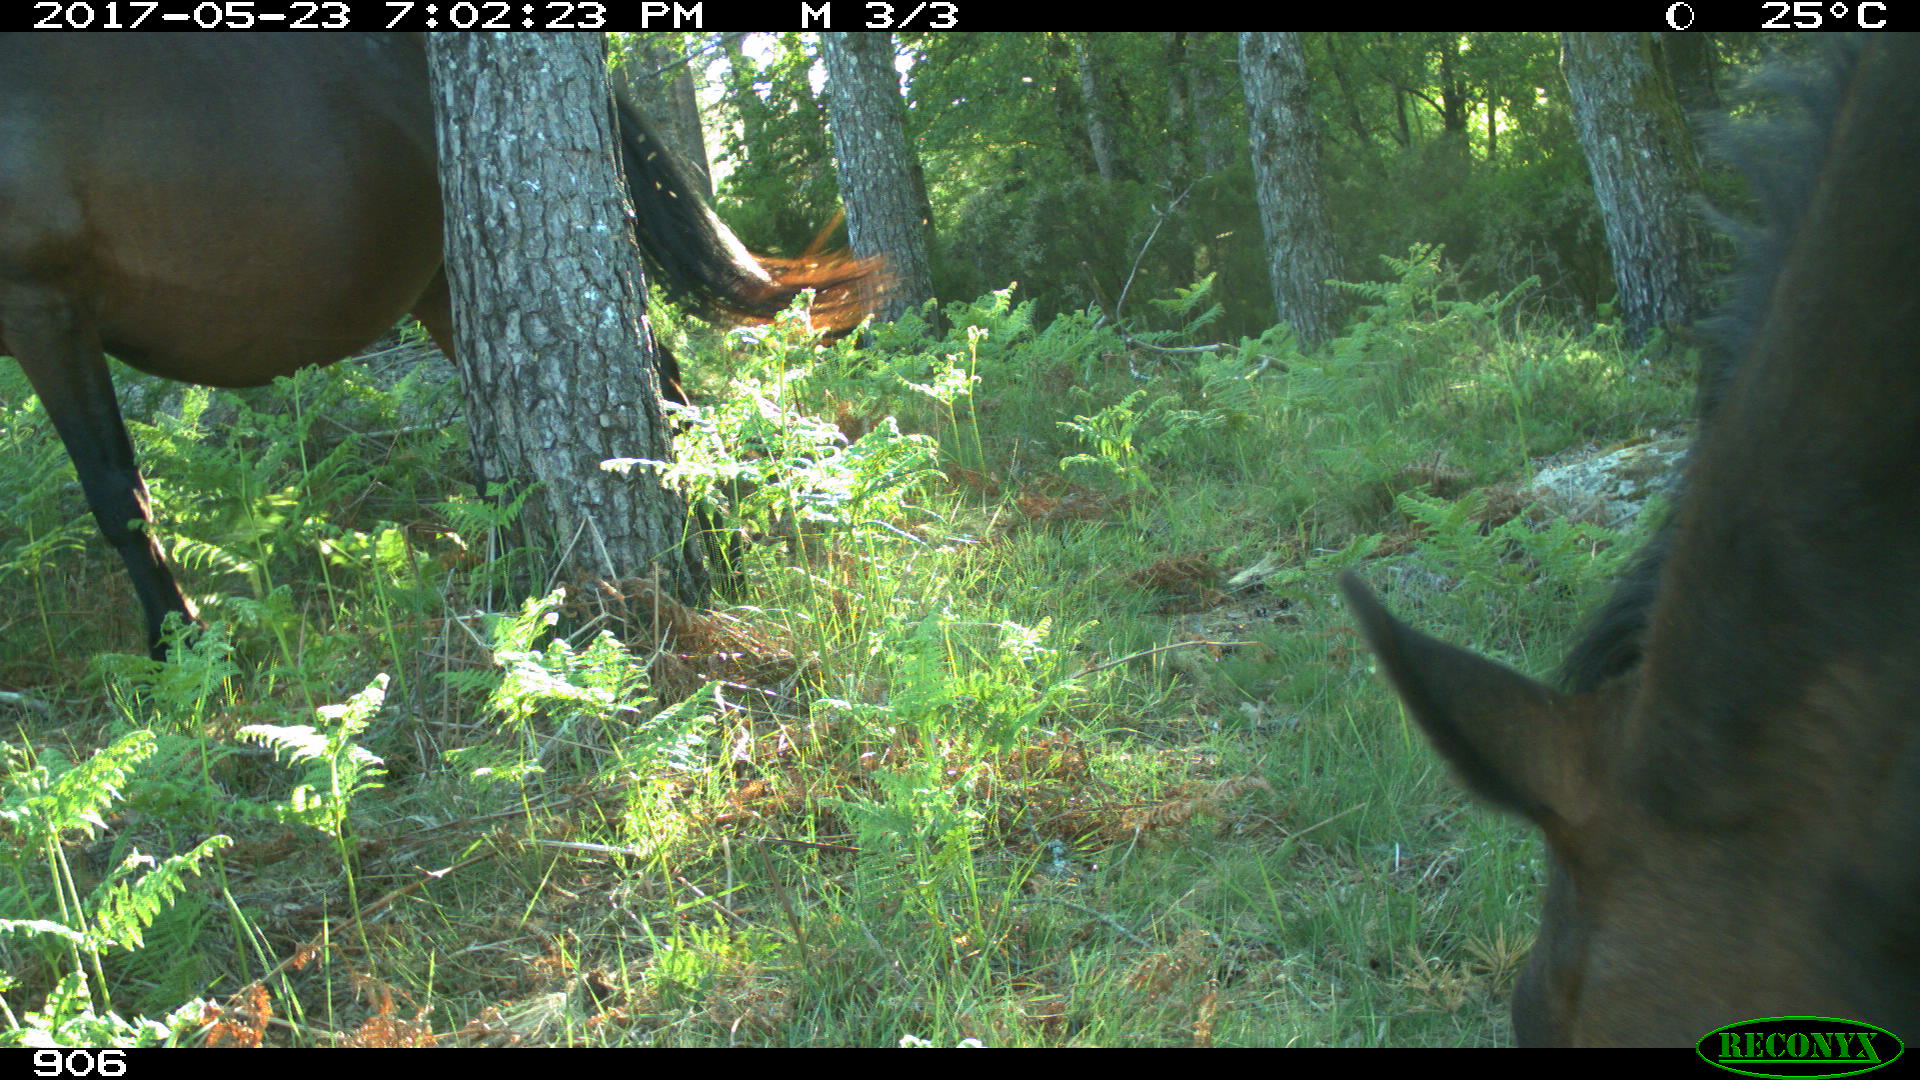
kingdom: Animalia
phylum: Chordata
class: Mammalia
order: Perissodactyla
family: Equidae
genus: Equus
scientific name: Equus caballus
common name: Horse
